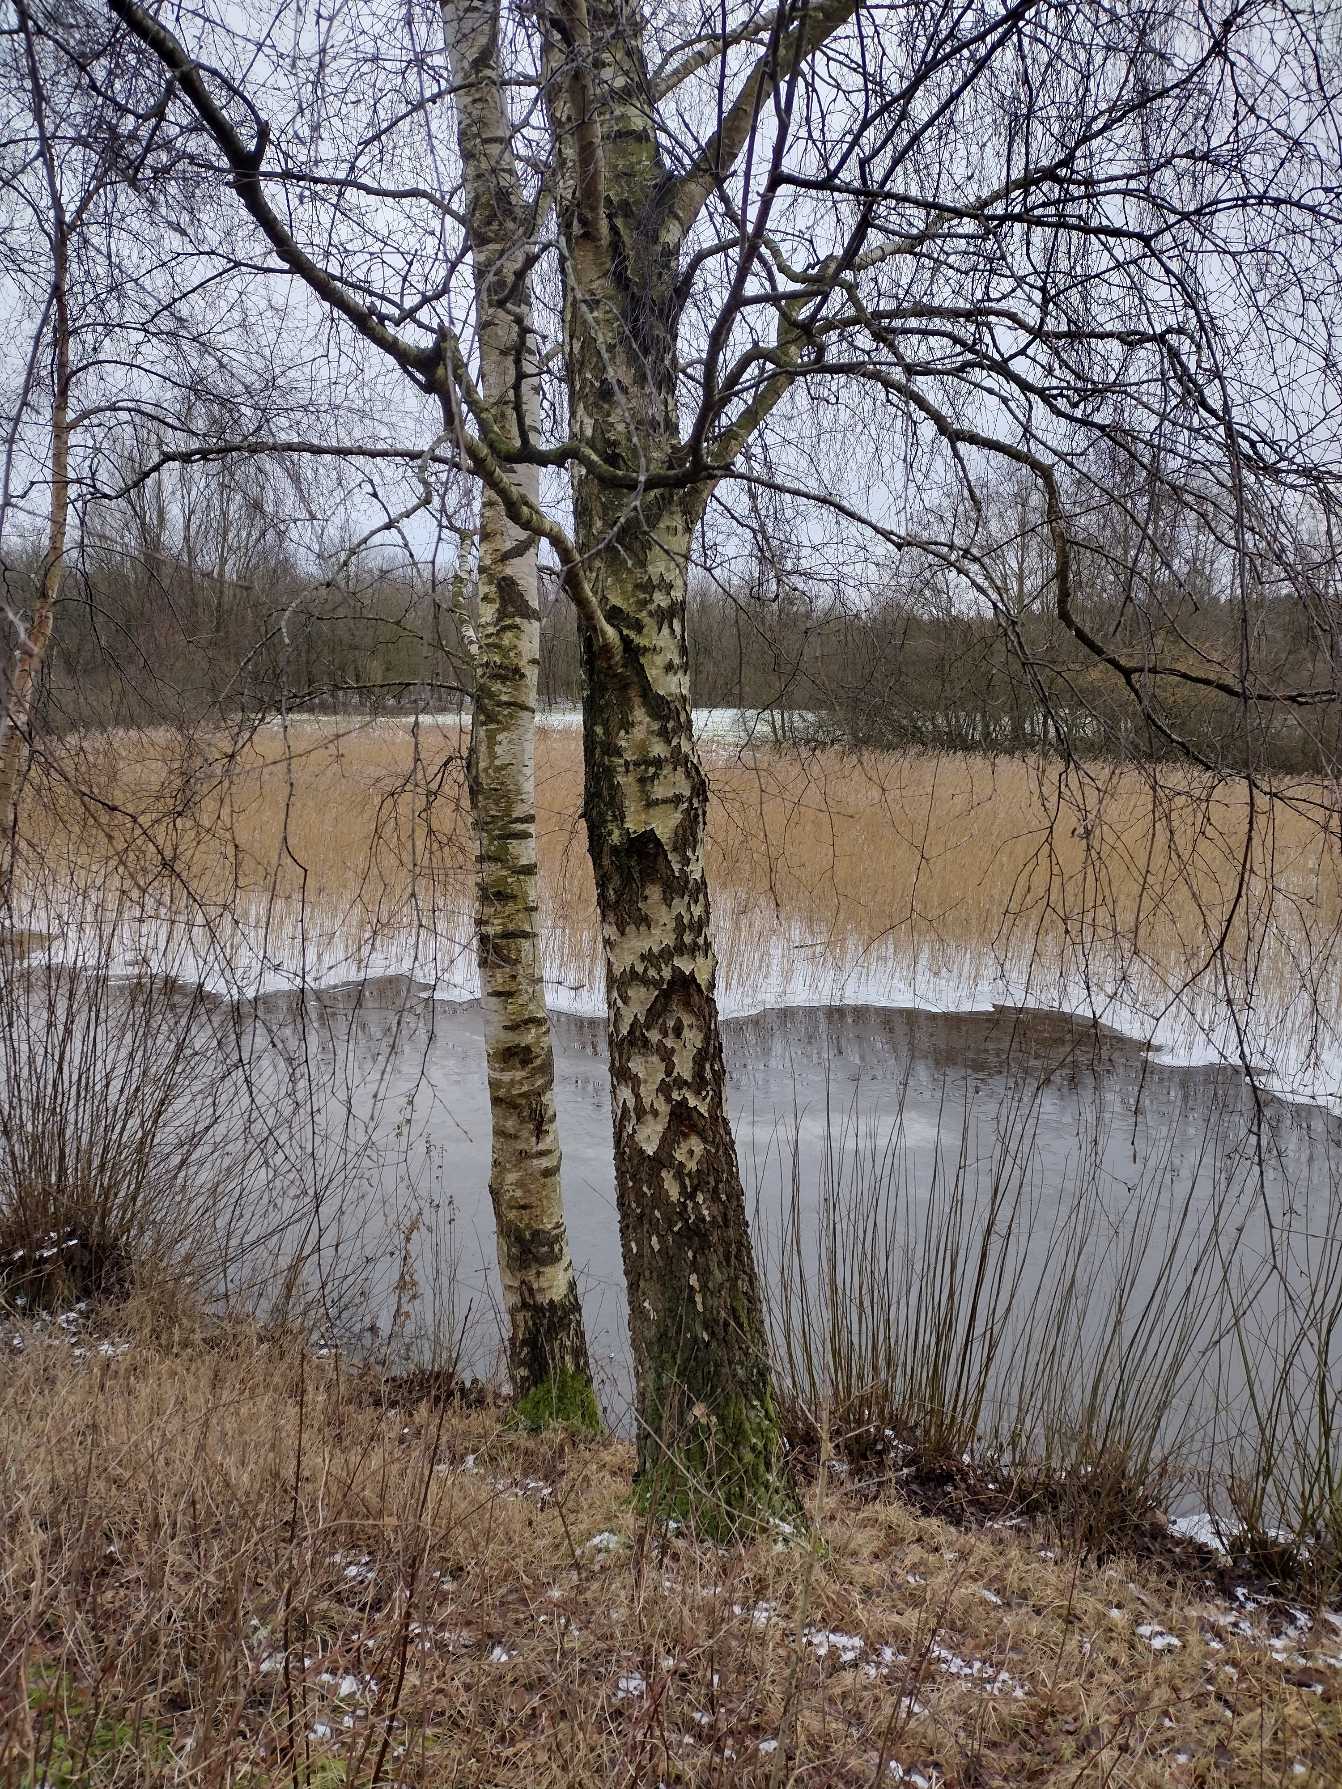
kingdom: Plantae
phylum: Tracheophyta
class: Magnoliopsida
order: Fagales
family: Betulaceae
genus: Betula
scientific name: Betula pendula
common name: Vorte-birk
